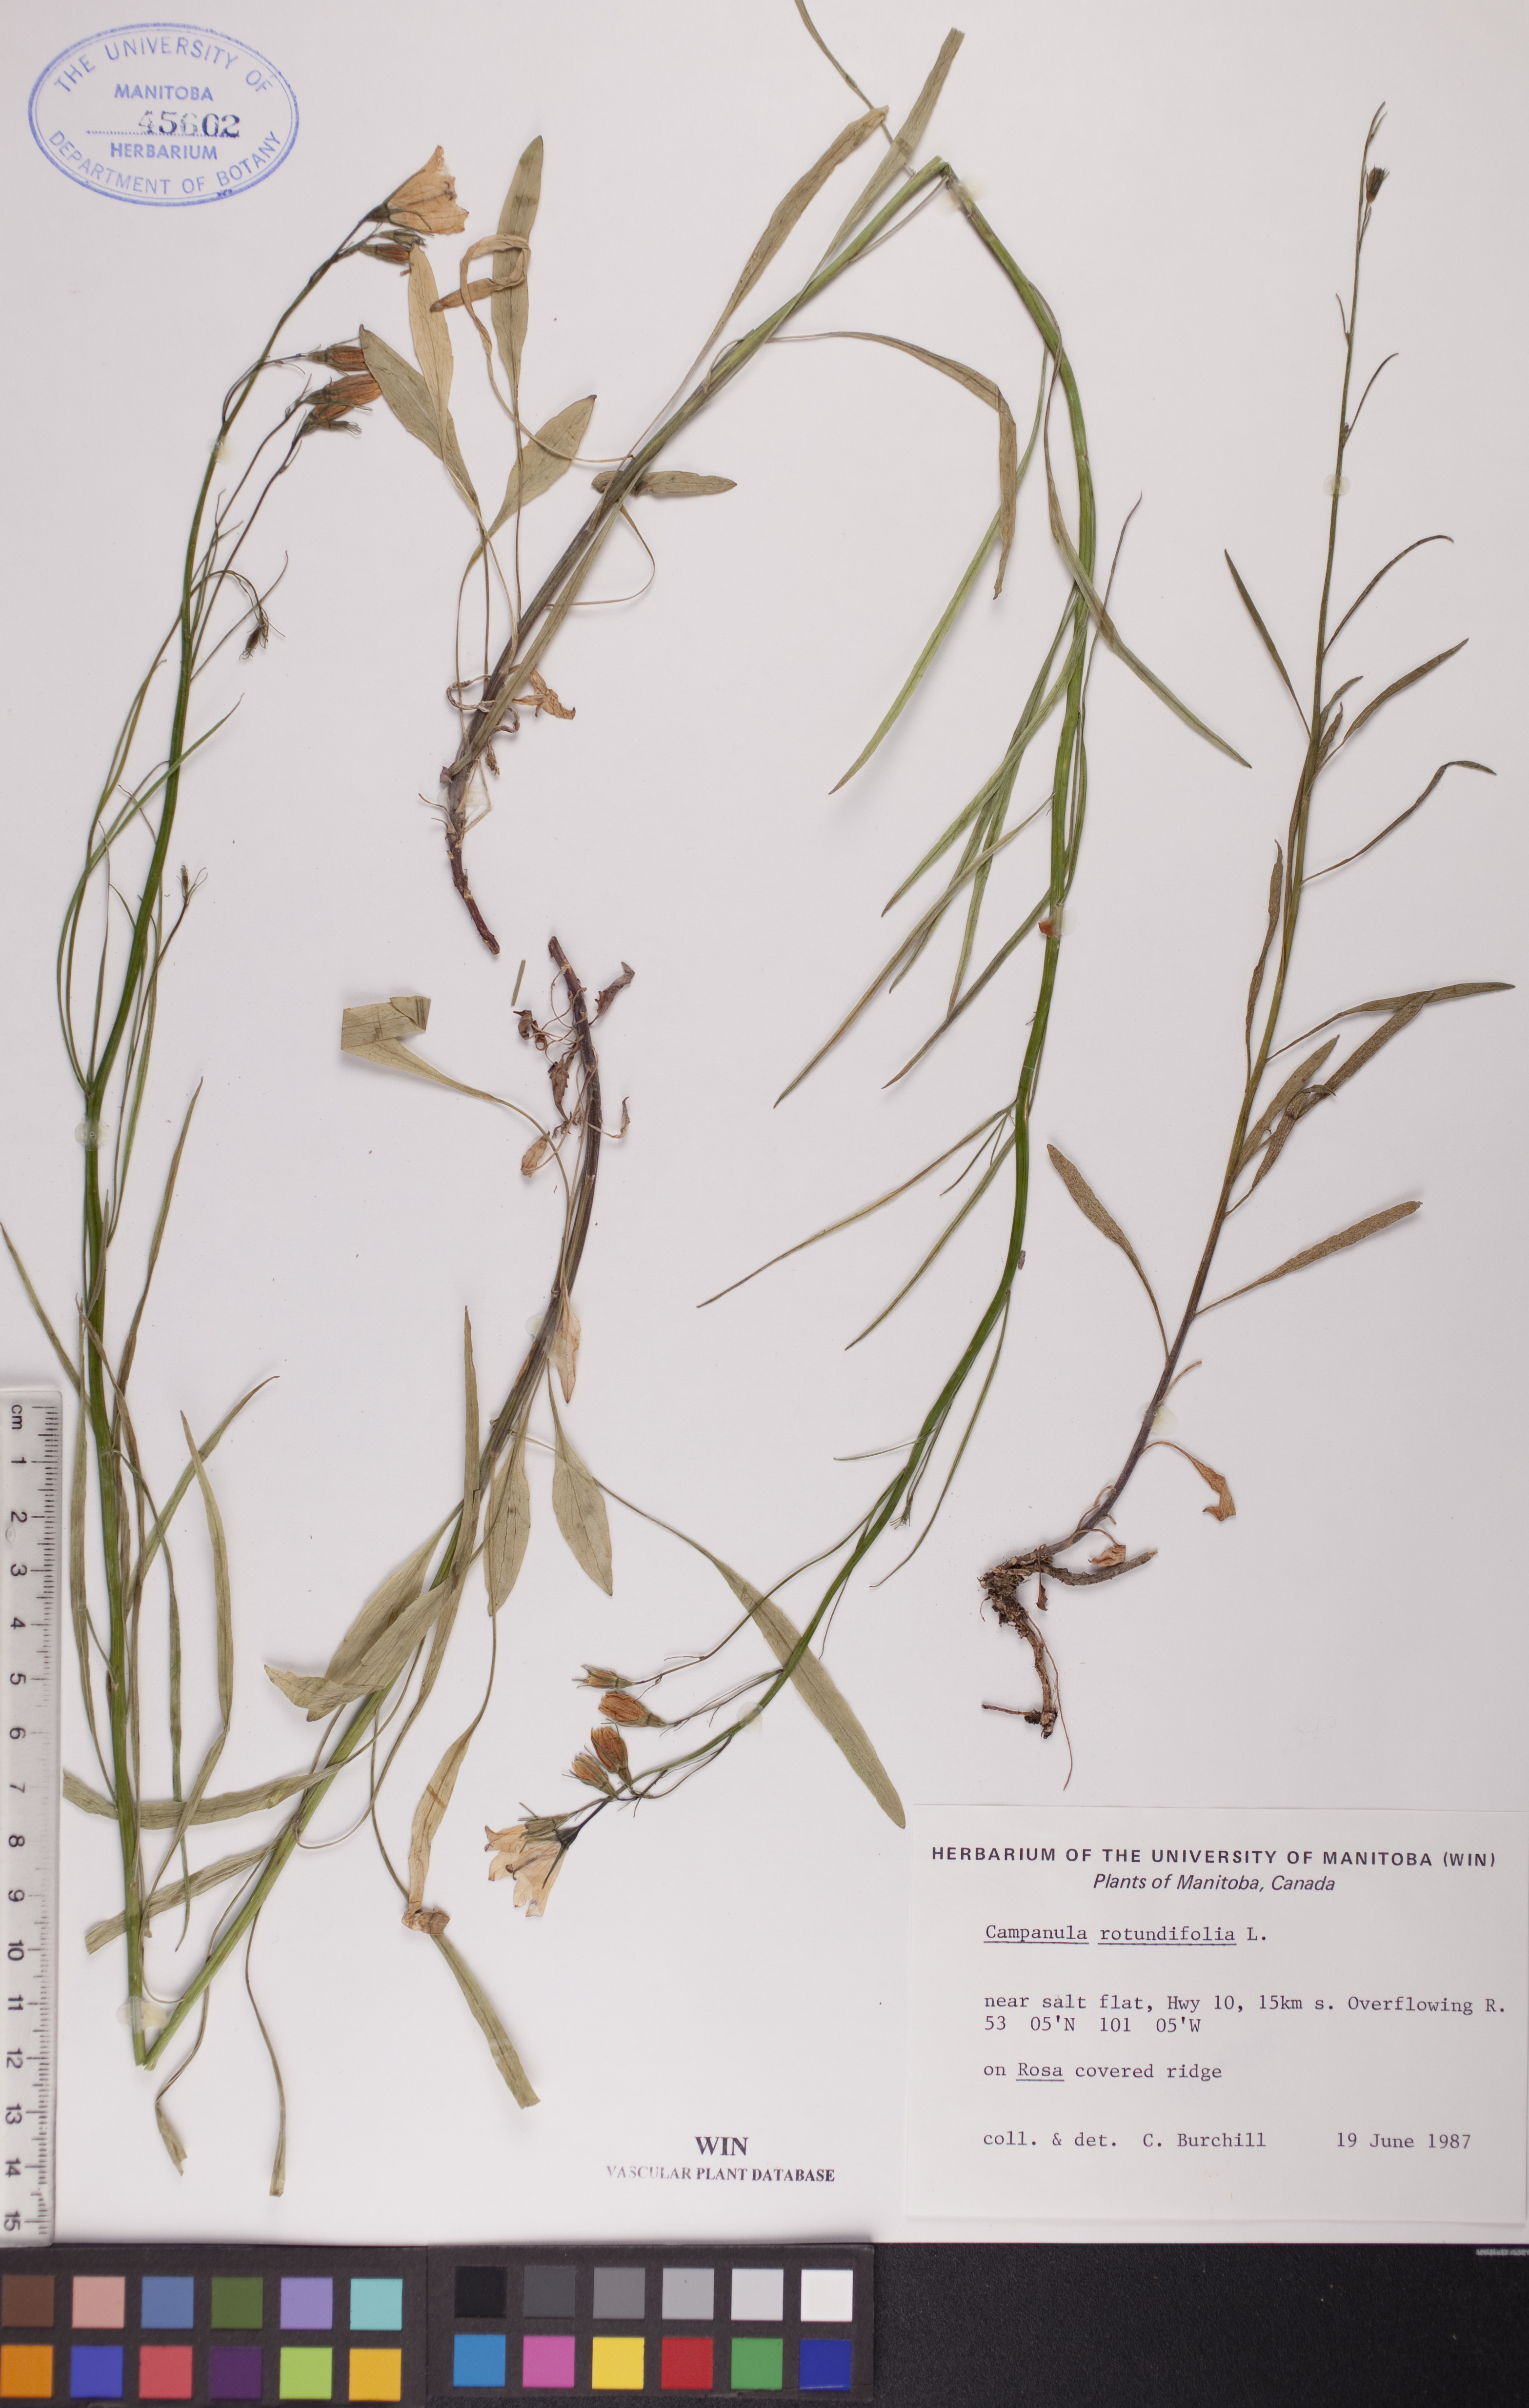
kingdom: Plantae
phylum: Tracheophyta
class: Magnoliopsida
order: Asterales
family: Campanulaceae
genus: Campanula
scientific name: Campanula rotundifolia
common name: Harebell
